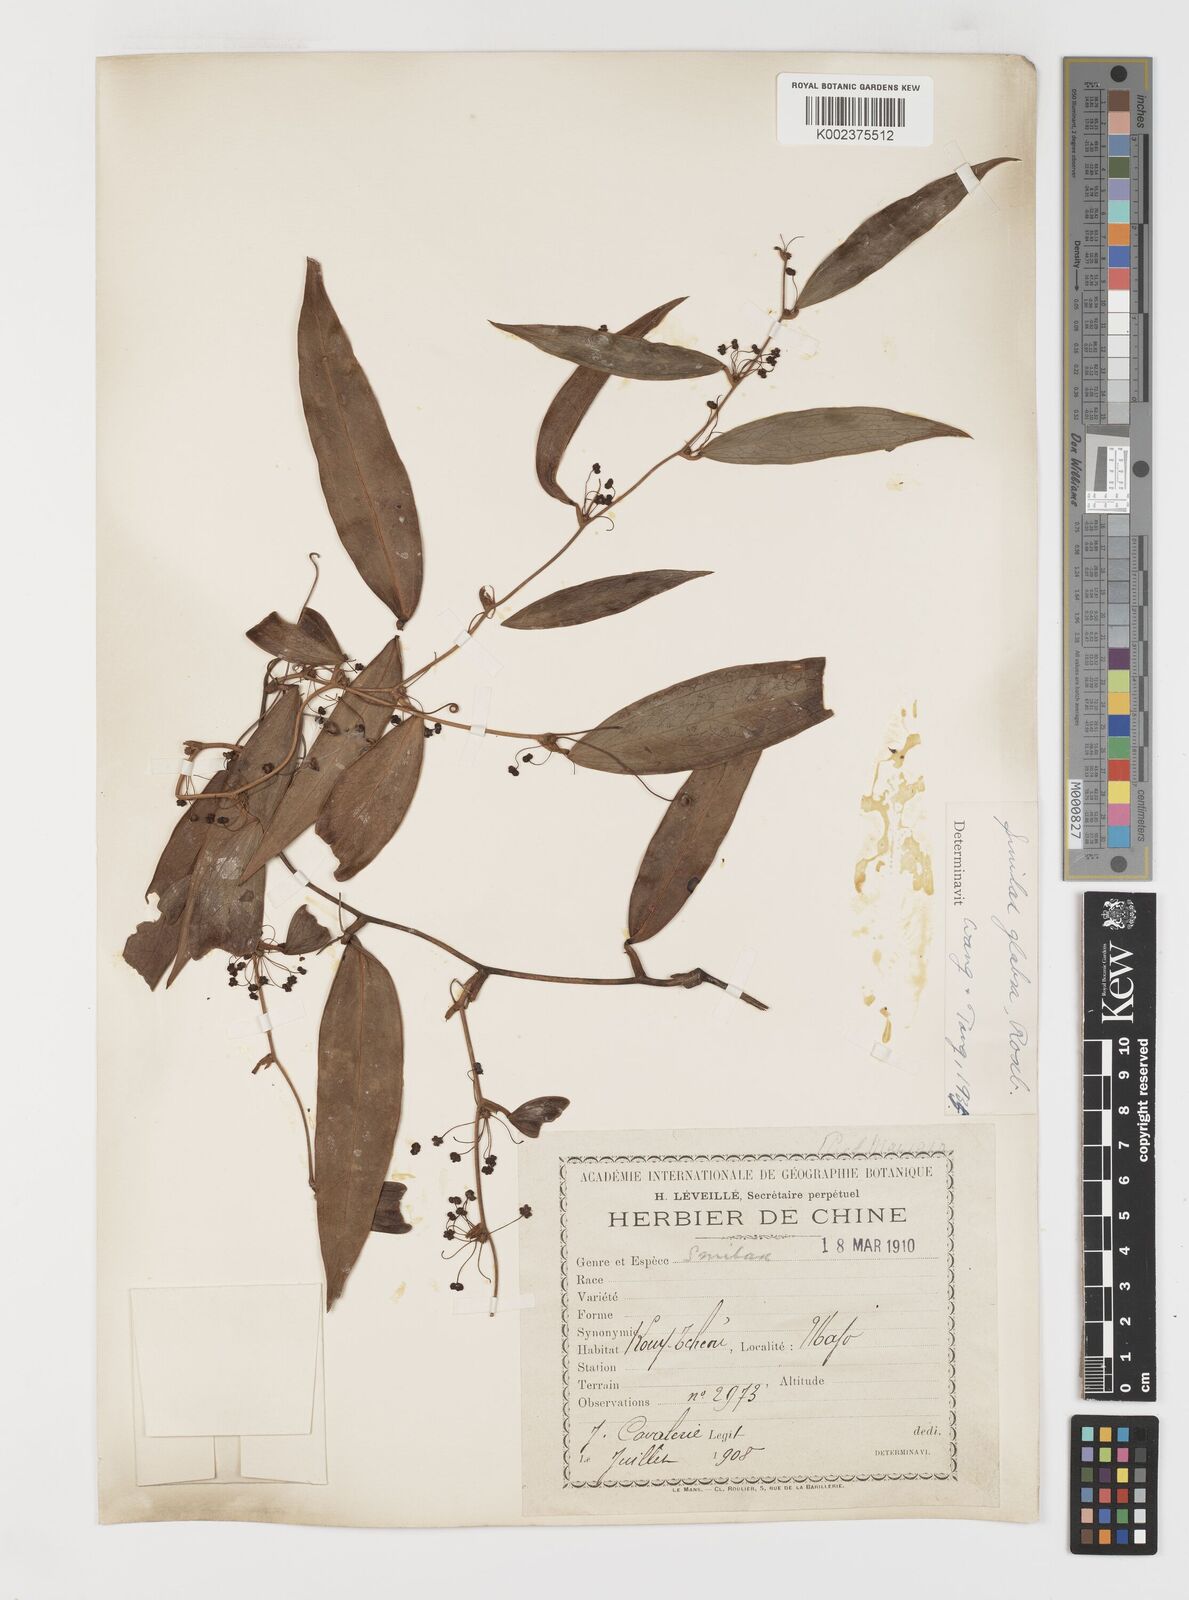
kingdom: Plantae
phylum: Tracheophyta
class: Liliopsida
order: Liliales
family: Smilacaceae
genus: Smilax
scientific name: Smilax glabra
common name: Chinese smilax
